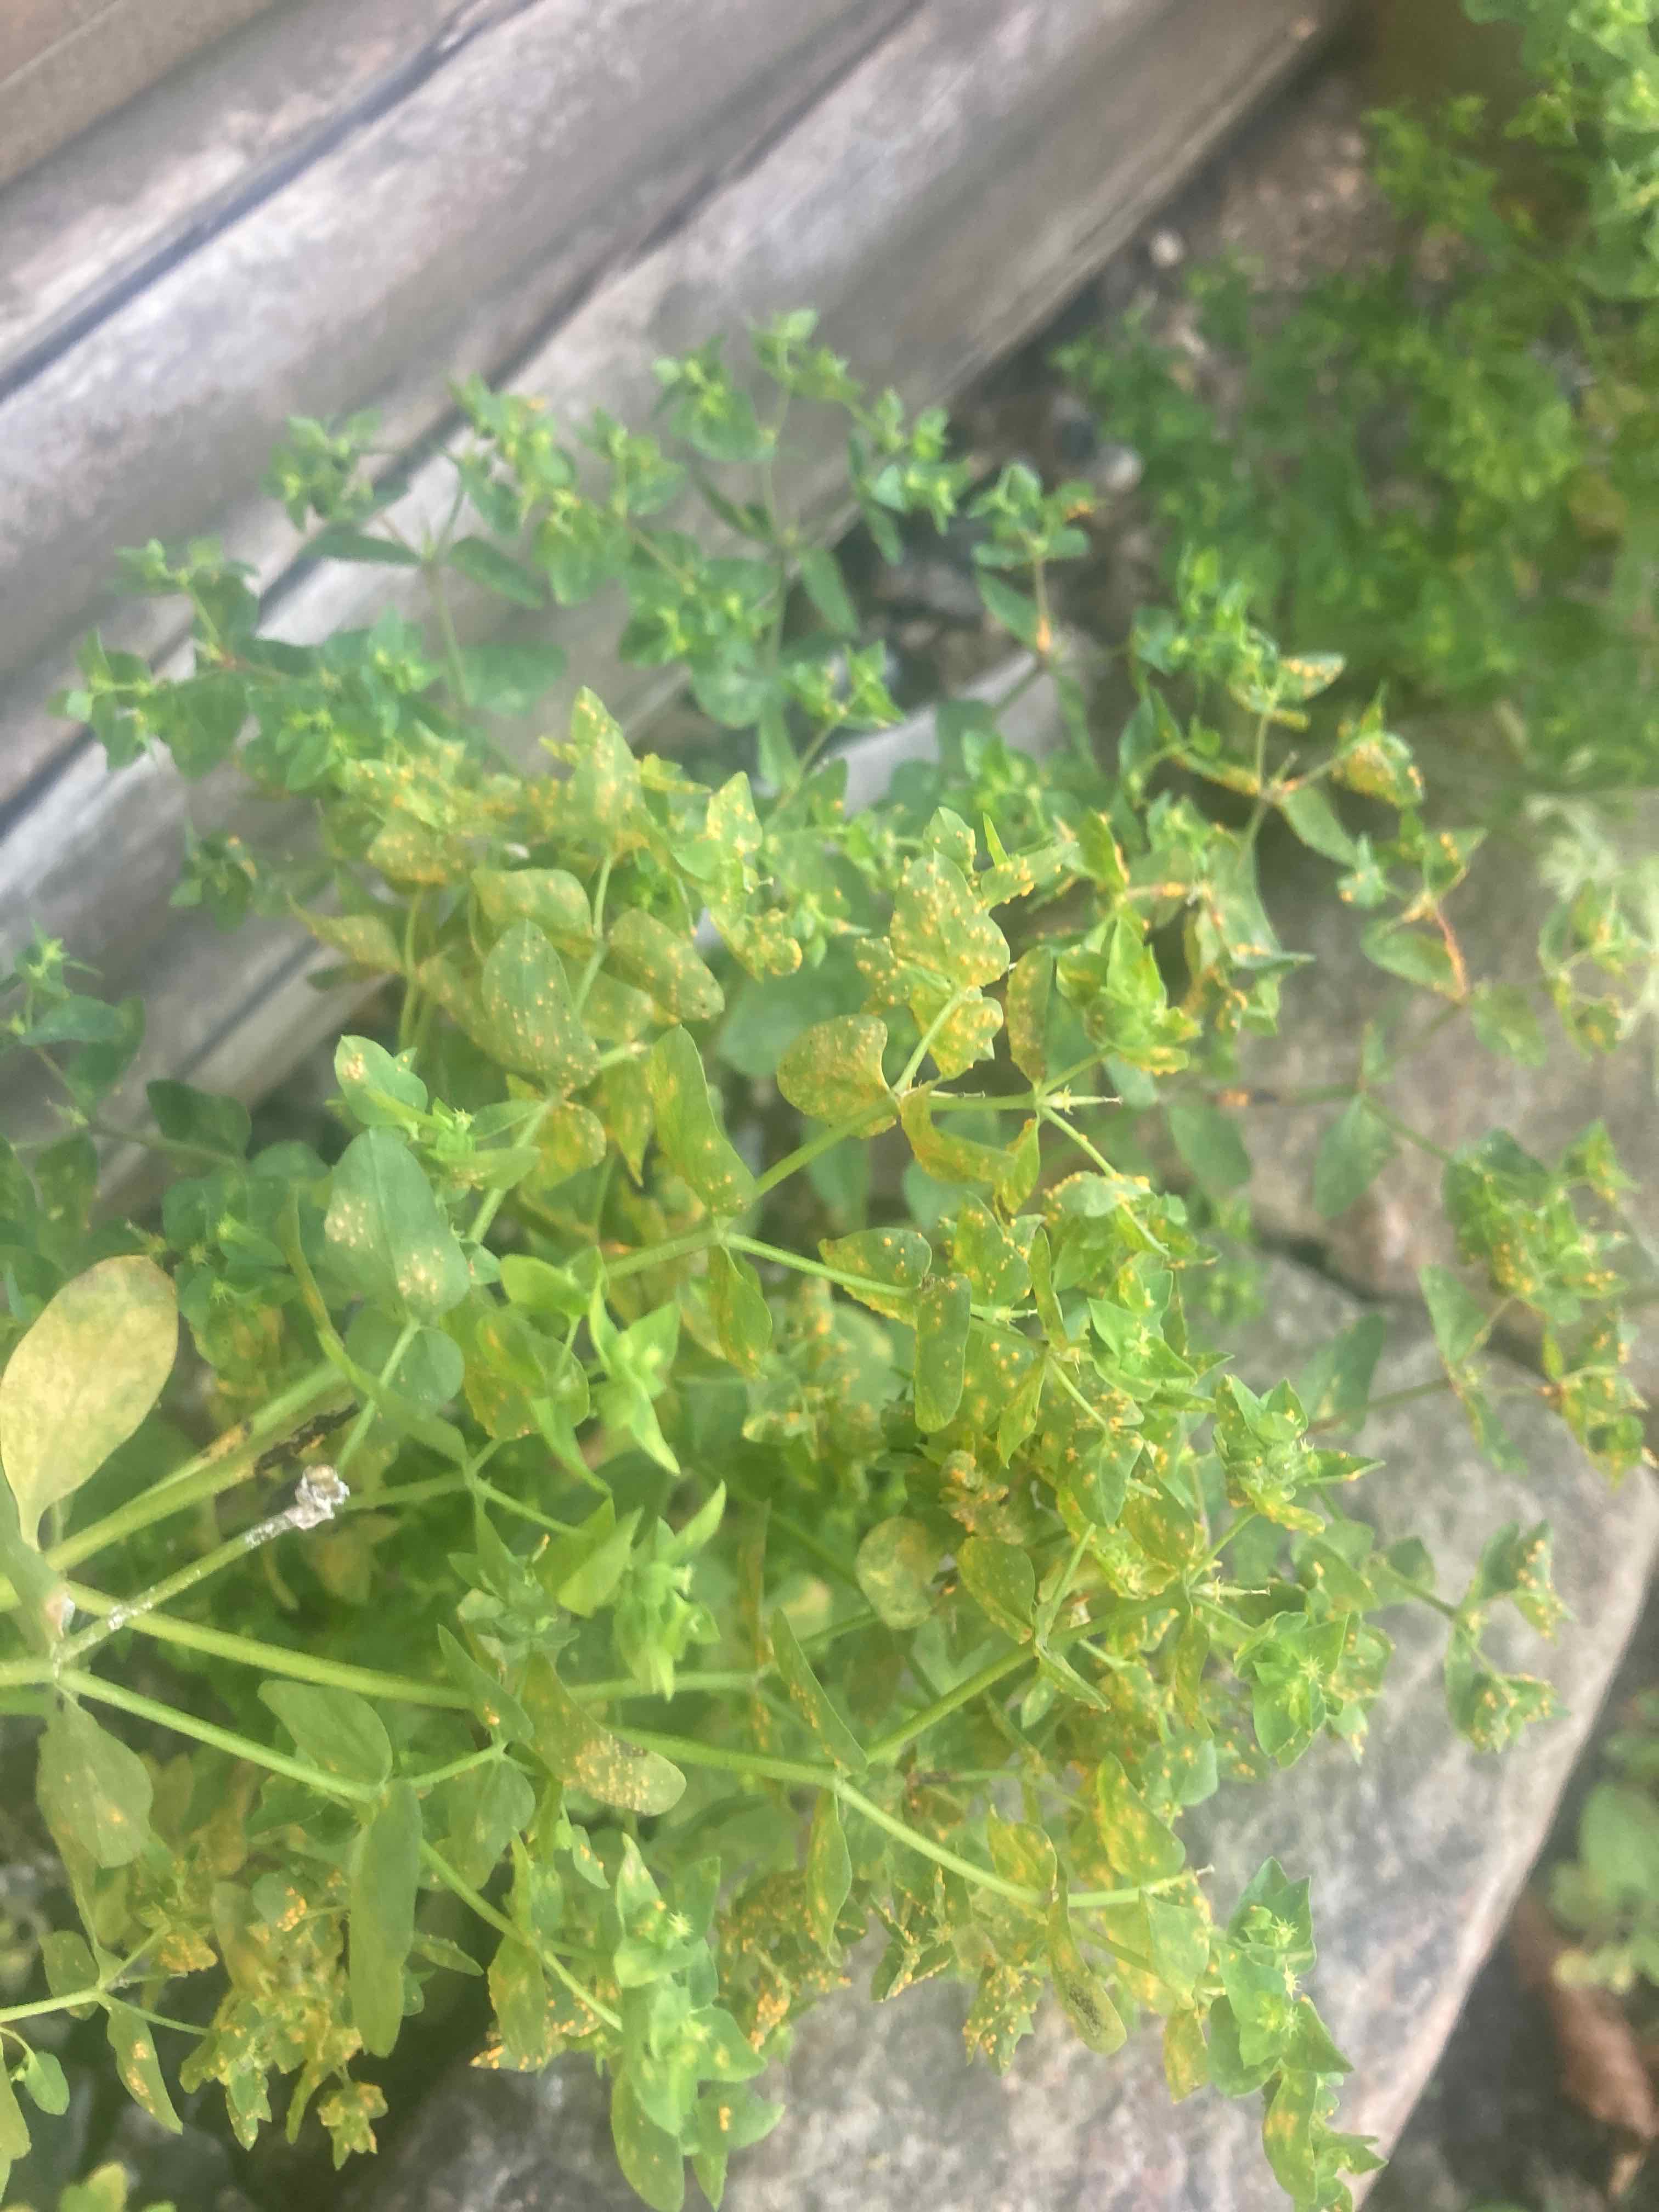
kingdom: Fungi
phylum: Basidiomycota
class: Pucciniomycetes
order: Pucciniales
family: Pucciniaceae
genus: Puccinia
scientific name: Puccinia
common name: tvecellerust
